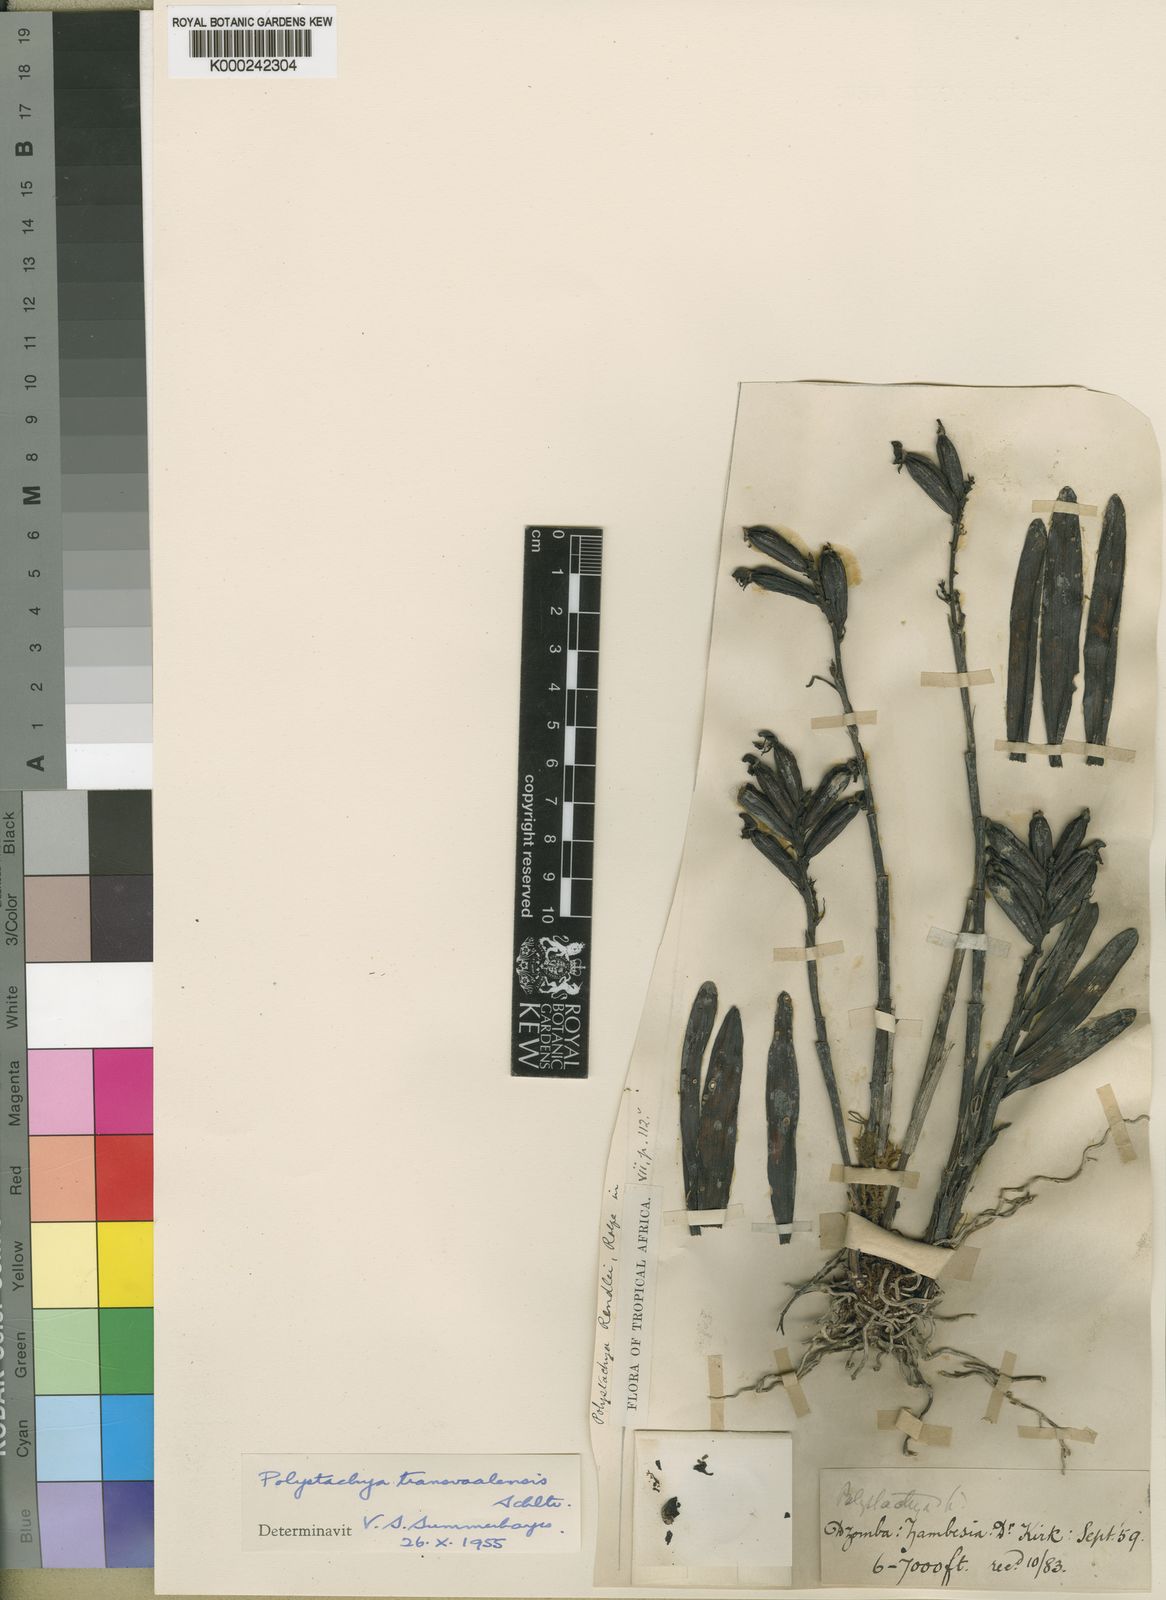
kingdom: Plantae
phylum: Tracheophyta
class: Liliopsida
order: Asparagales
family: Orchidaceae
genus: Polystachya
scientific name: Polystachya transvaalensis
